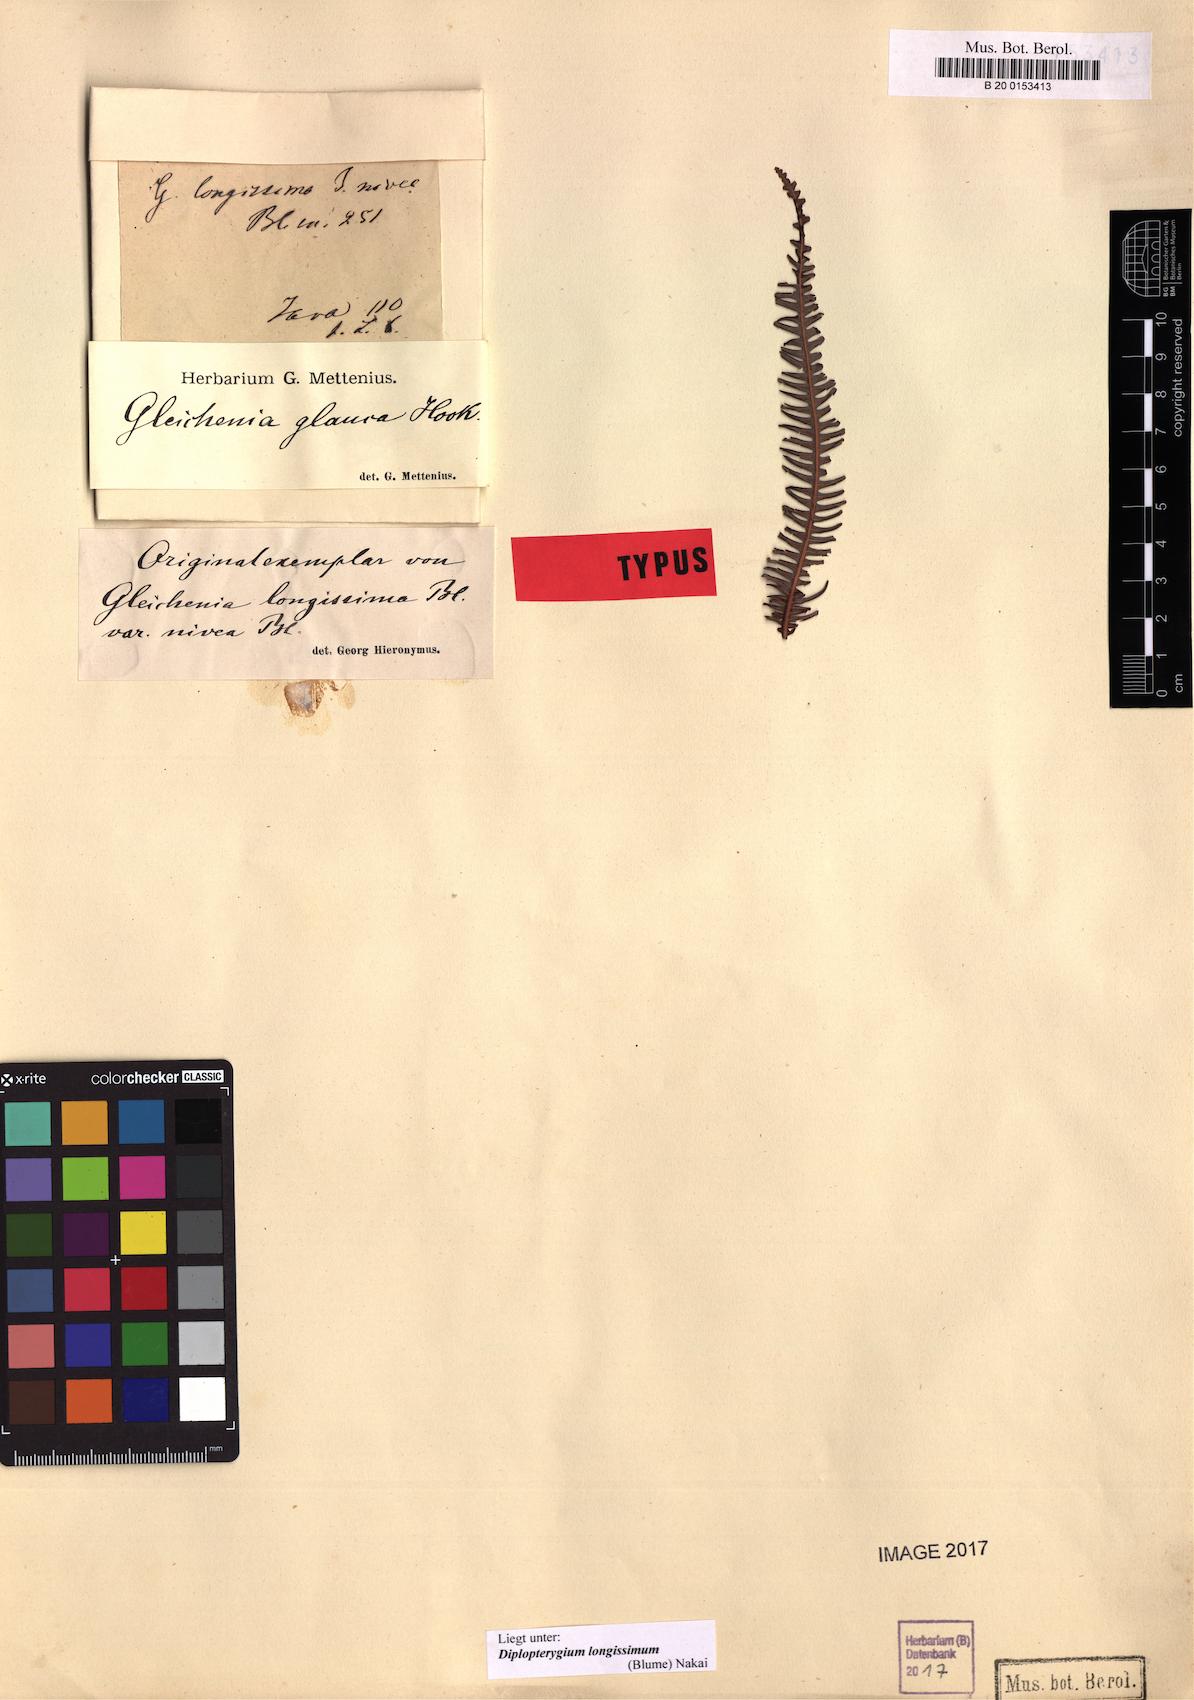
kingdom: Plantae
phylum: Tracheophyta
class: Polypodiopsida
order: Gleicheniales
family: Gleicheniaceae
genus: Diplopterygium
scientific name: Diplopterygium longissimum
